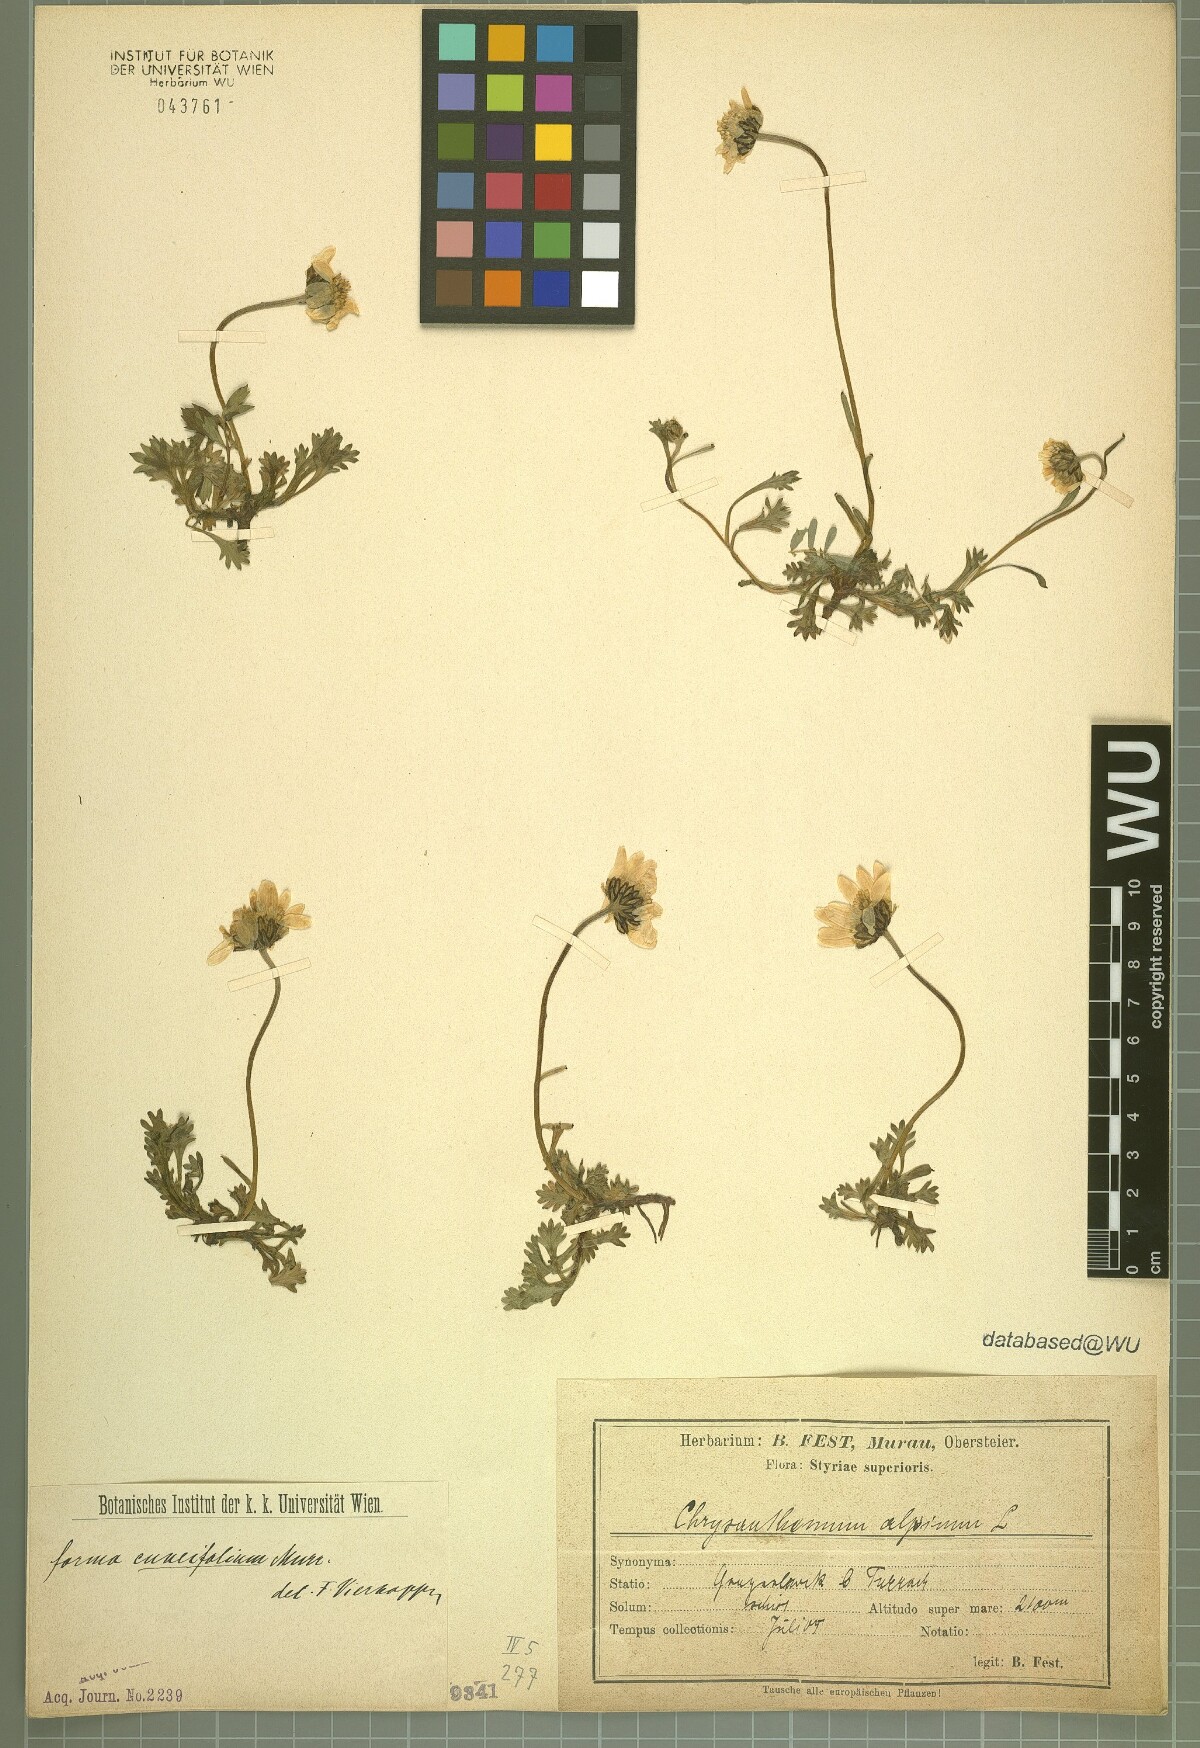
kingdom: Plantae
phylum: Tracheophyta
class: Magnoliopsida
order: Asterales
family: Asteraceae
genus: Leucanthemopsis
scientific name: Leucanthemopsis alpina
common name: Alpine moon daisy
